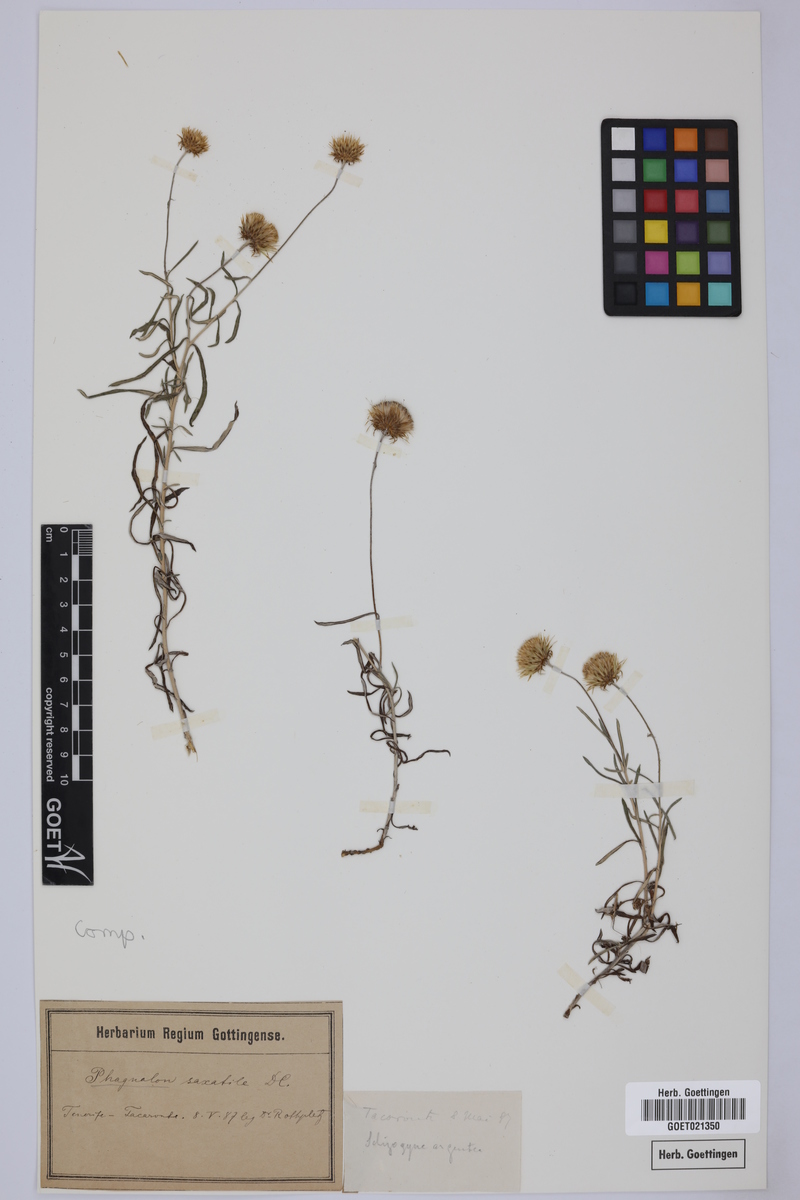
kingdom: Plantae
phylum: Tracheophyta
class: Magnoliopsida
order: Asterales
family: Asteraceae
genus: Phagnalon
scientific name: Phagnalon saxatile
